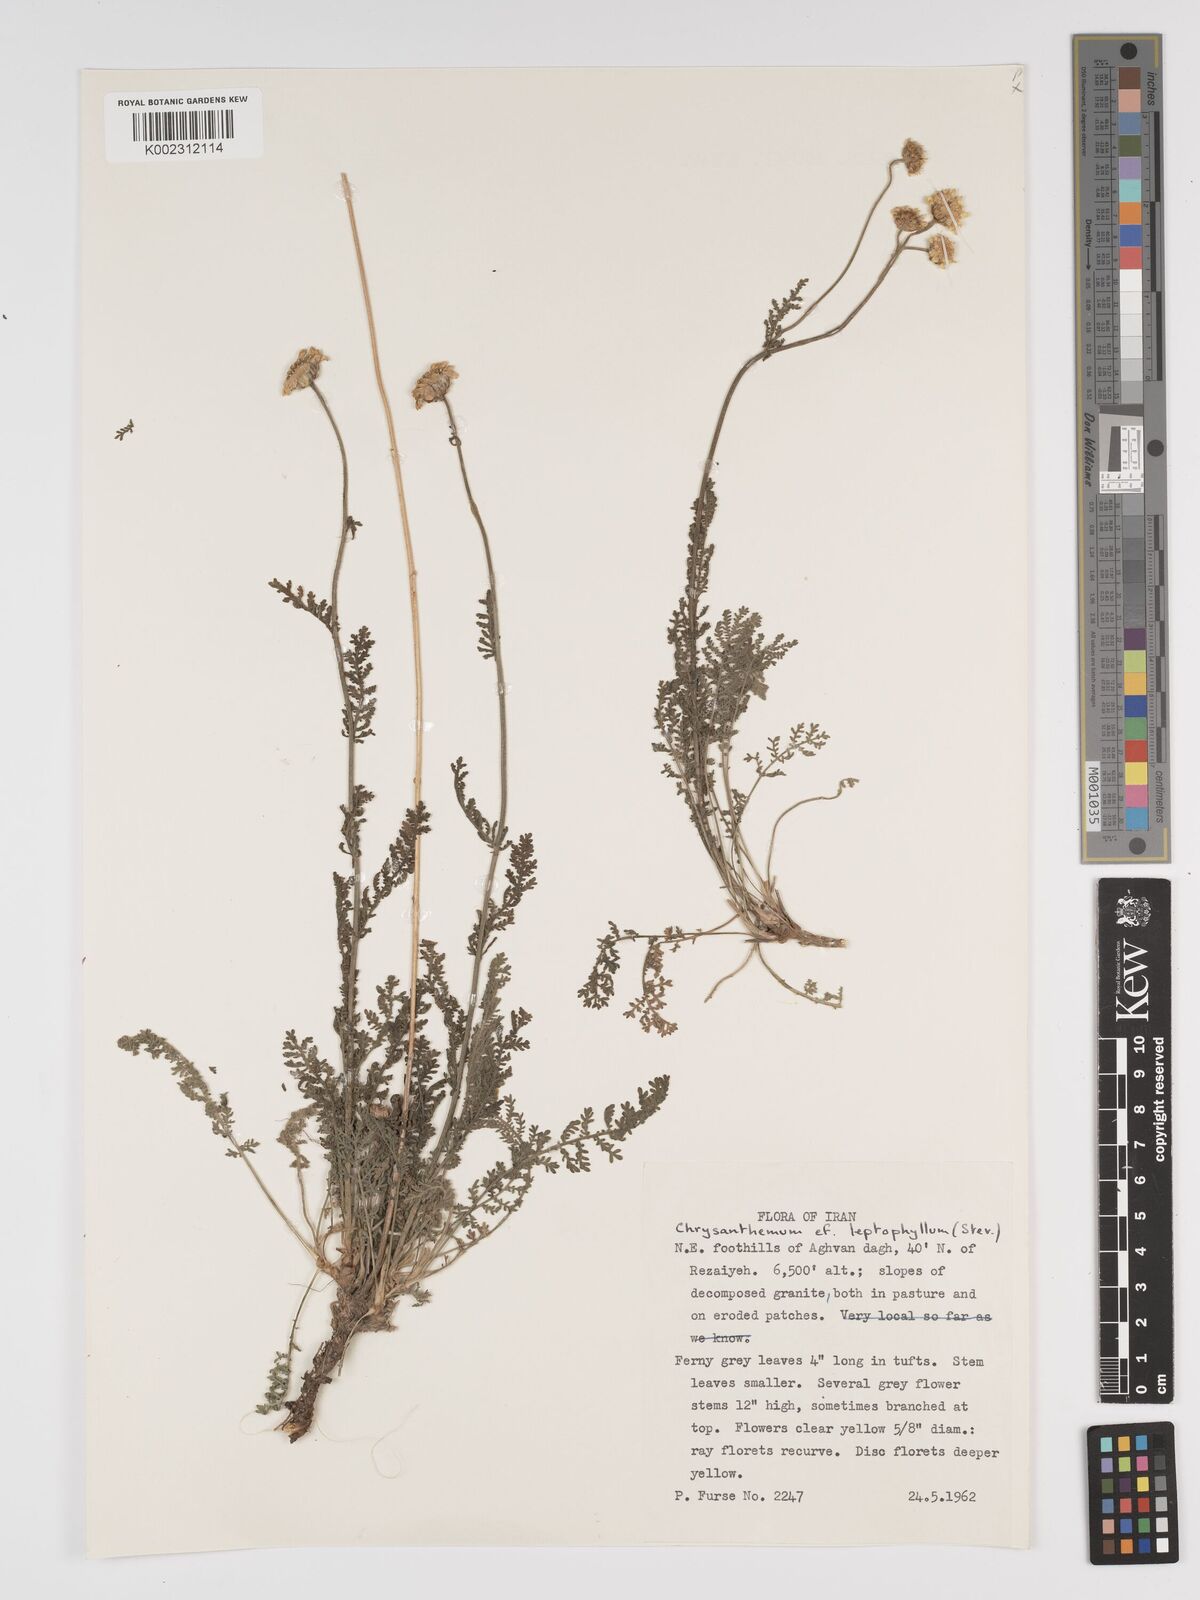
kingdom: Plantae
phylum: Tracheophyta
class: Magnoliopsida
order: Asterales
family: Asteraceae
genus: Tanacetum
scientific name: Tanacetum leptophyllum
